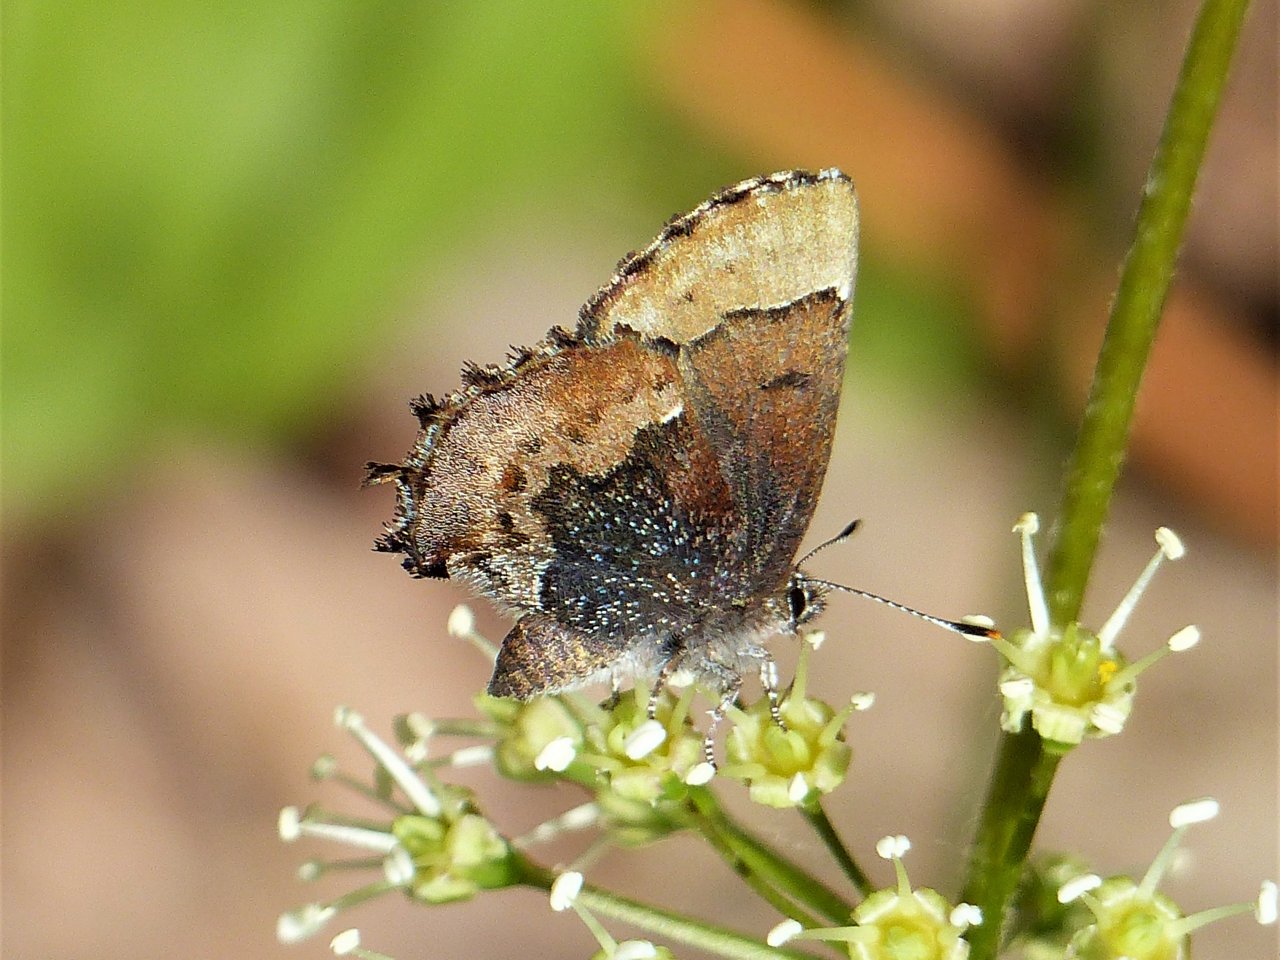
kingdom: Animalia
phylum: Arthropoda
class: Insecta
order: Lepidoptera
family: Lycaenidae
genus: Incisalia
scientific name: Incisalia henrici
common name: Henry's Elfin
